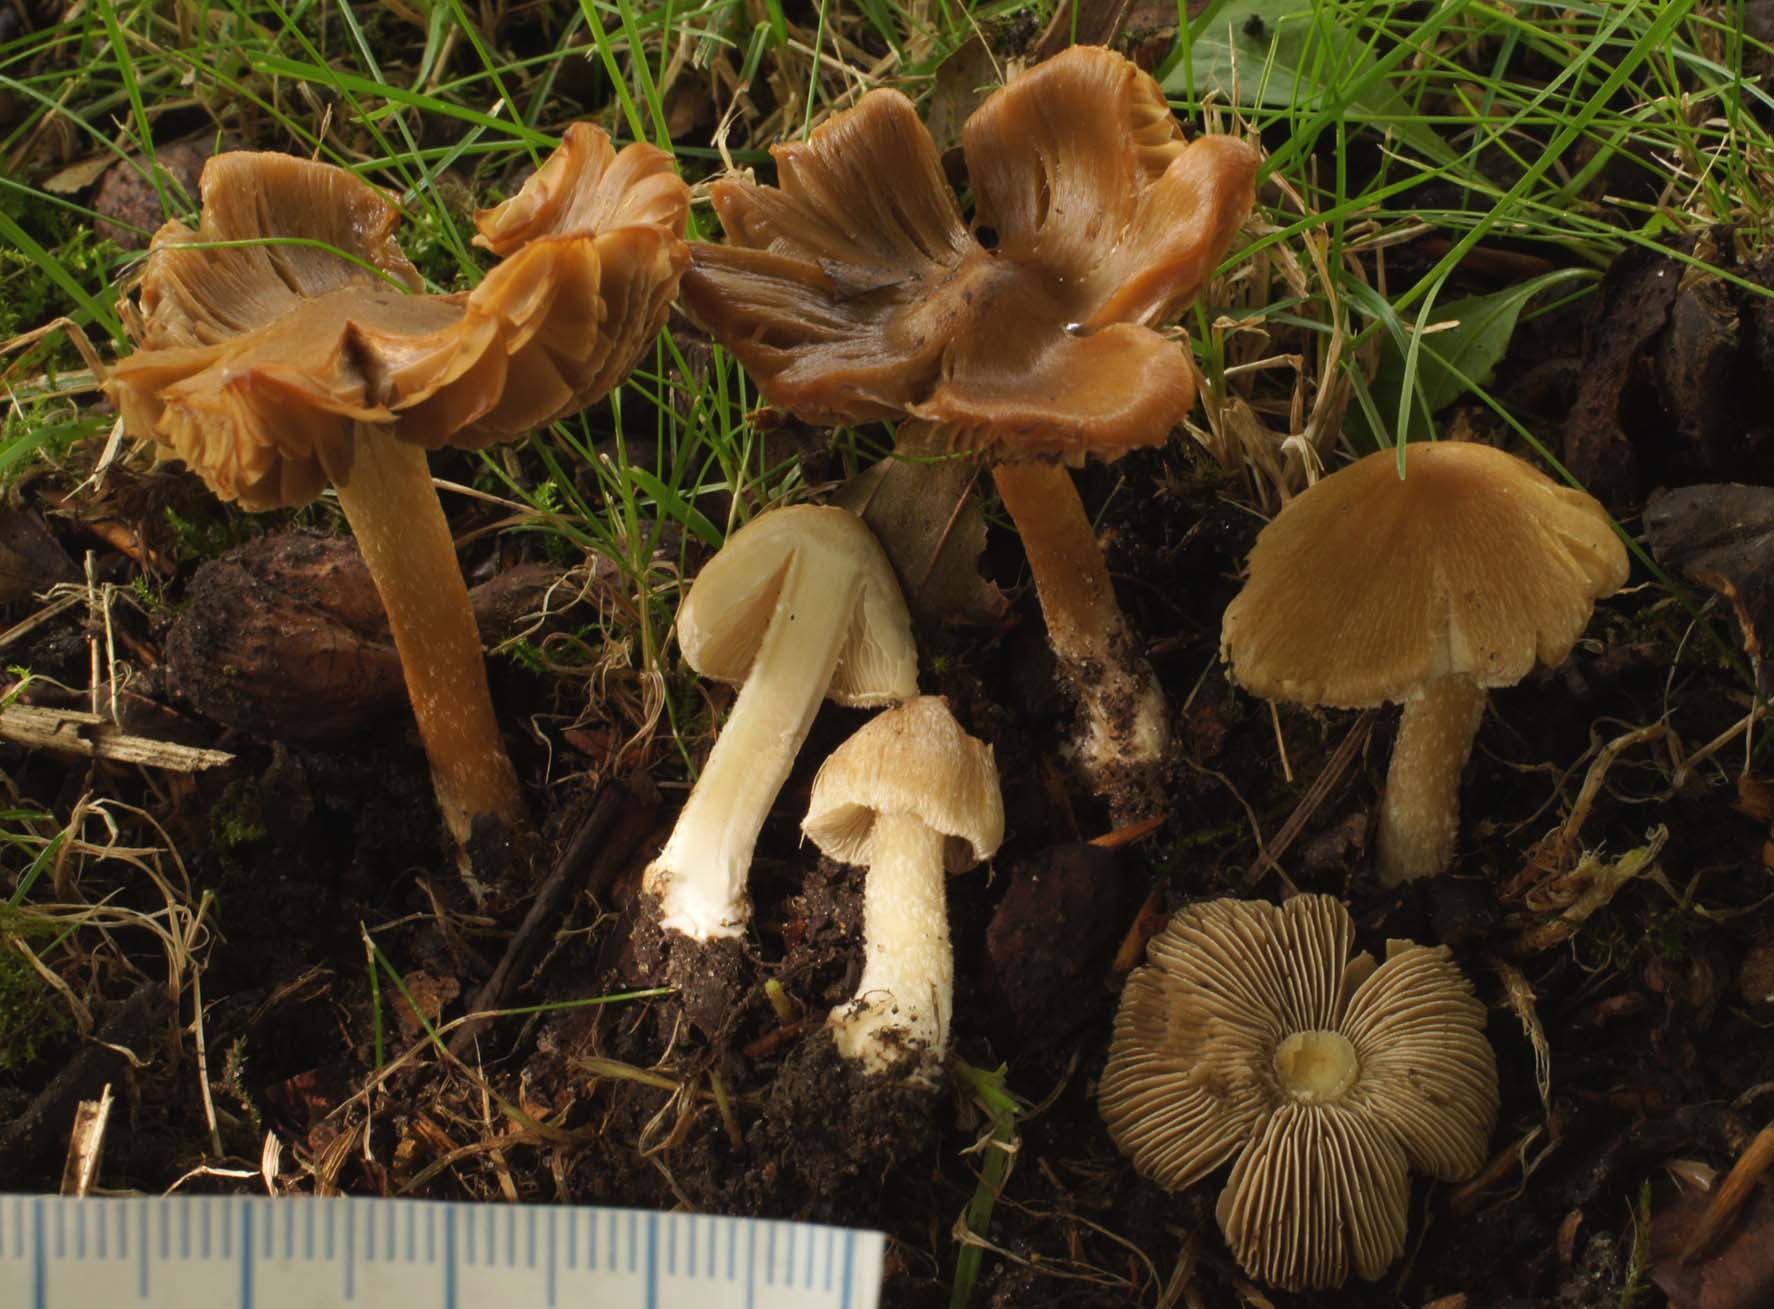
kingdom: Fungi
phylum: Basidiomycota
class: Agaricomycetes
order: Agaricales
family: Inocybaceae
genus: Inosperma
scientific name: Inosperma
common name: strågul trævlhat
